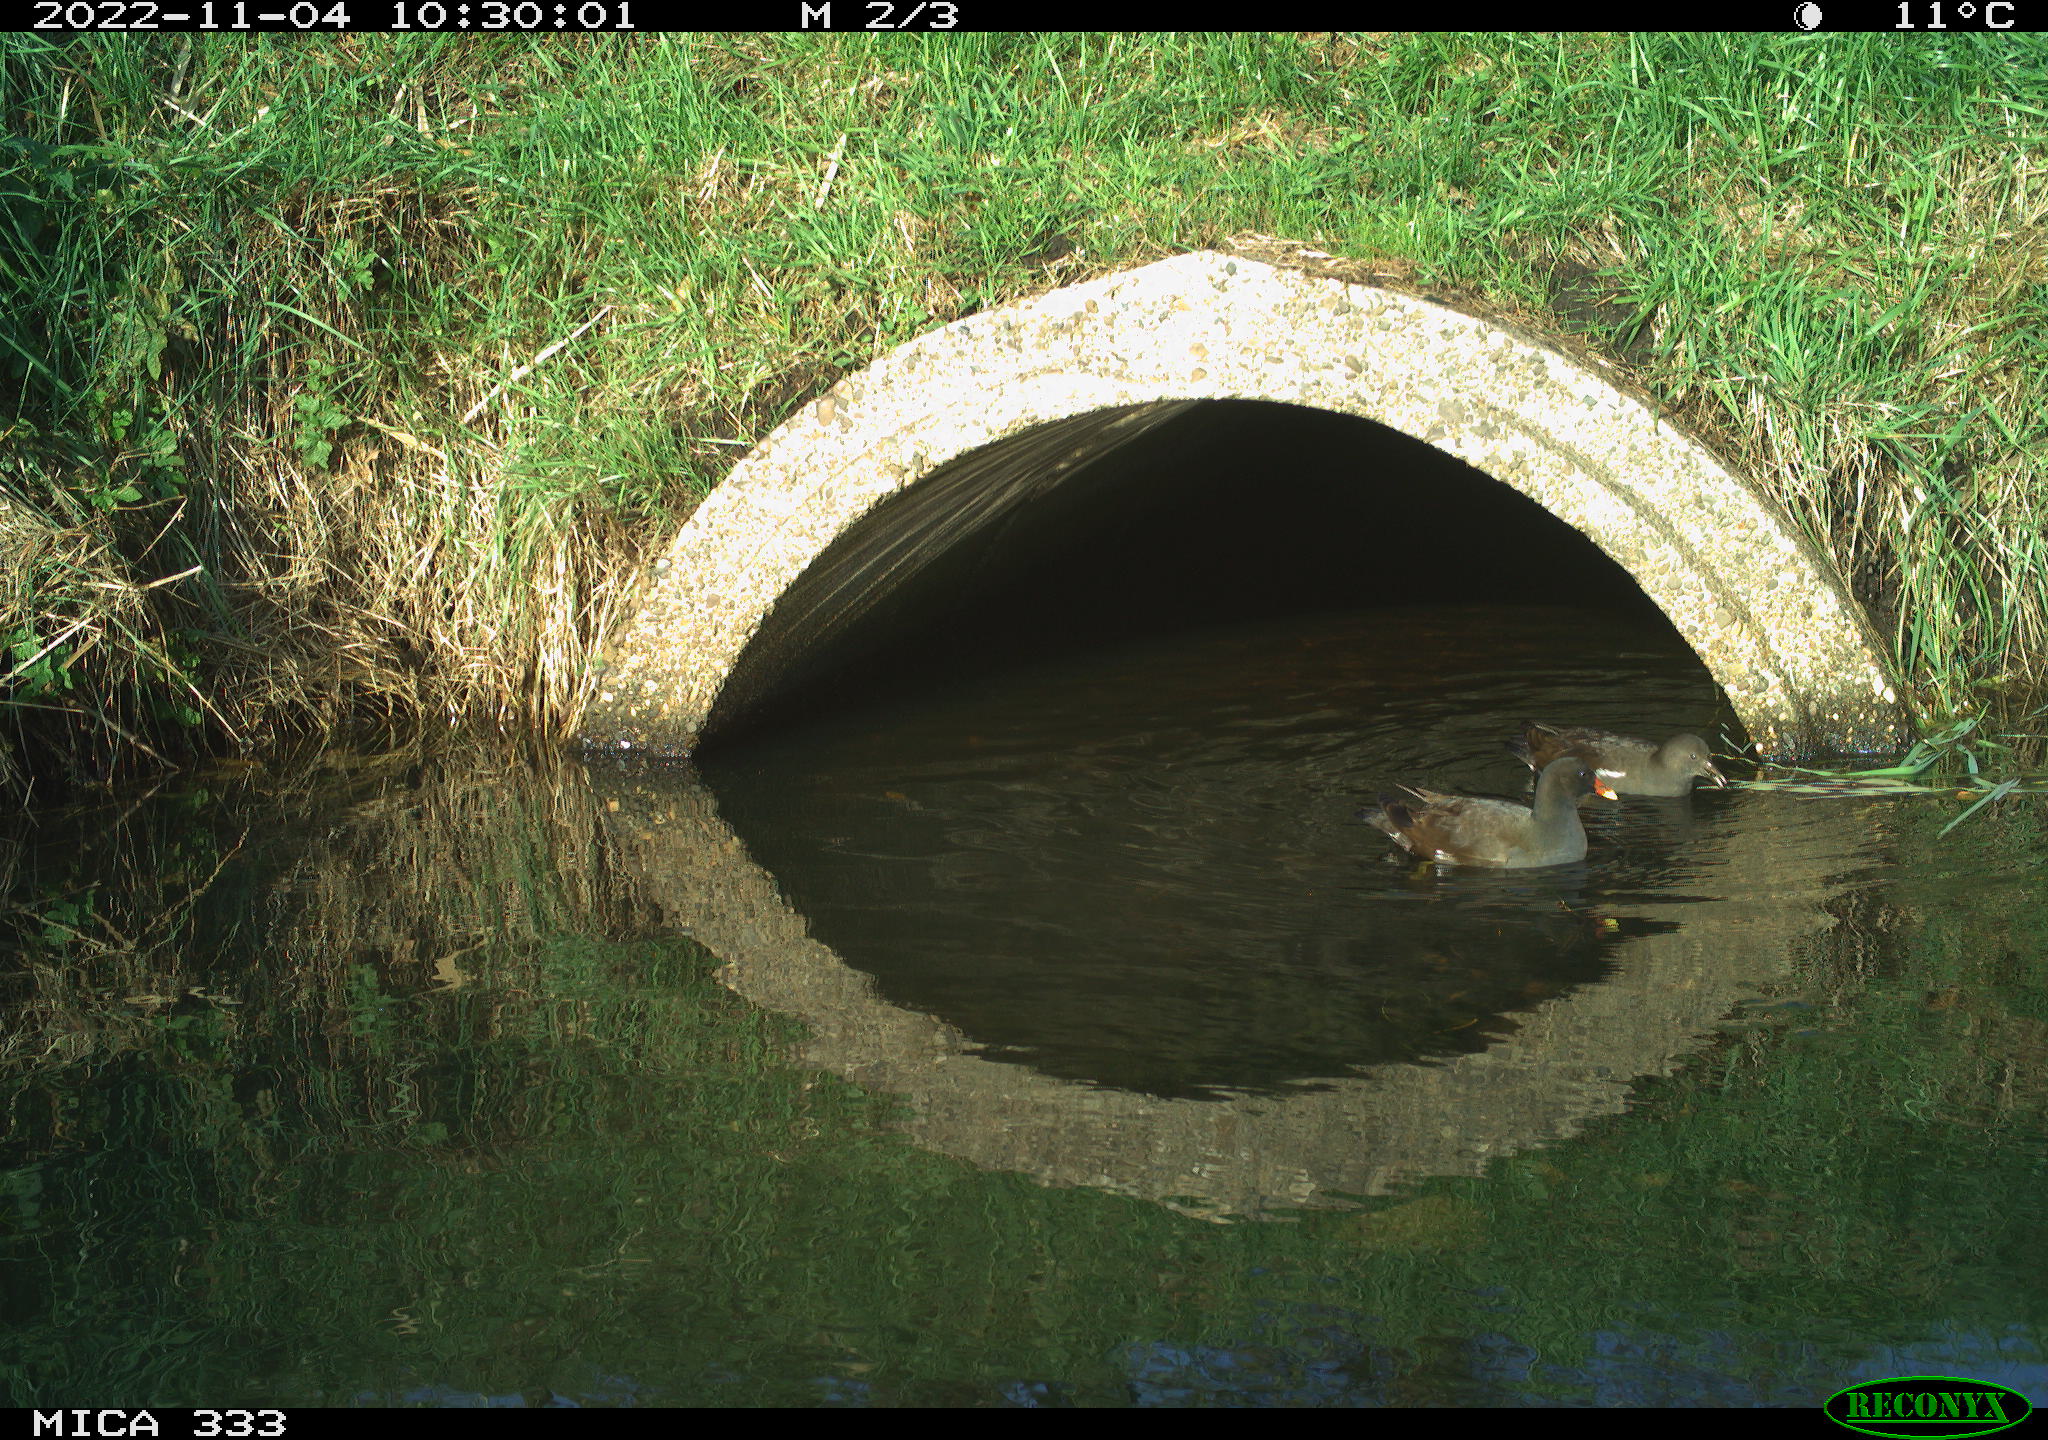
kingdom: Animalia
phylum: Chordata
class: Aves
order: Gruiformes
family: Rallidae
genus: Gallinula
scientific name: Gallinula chloropus
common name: Common moorhen
